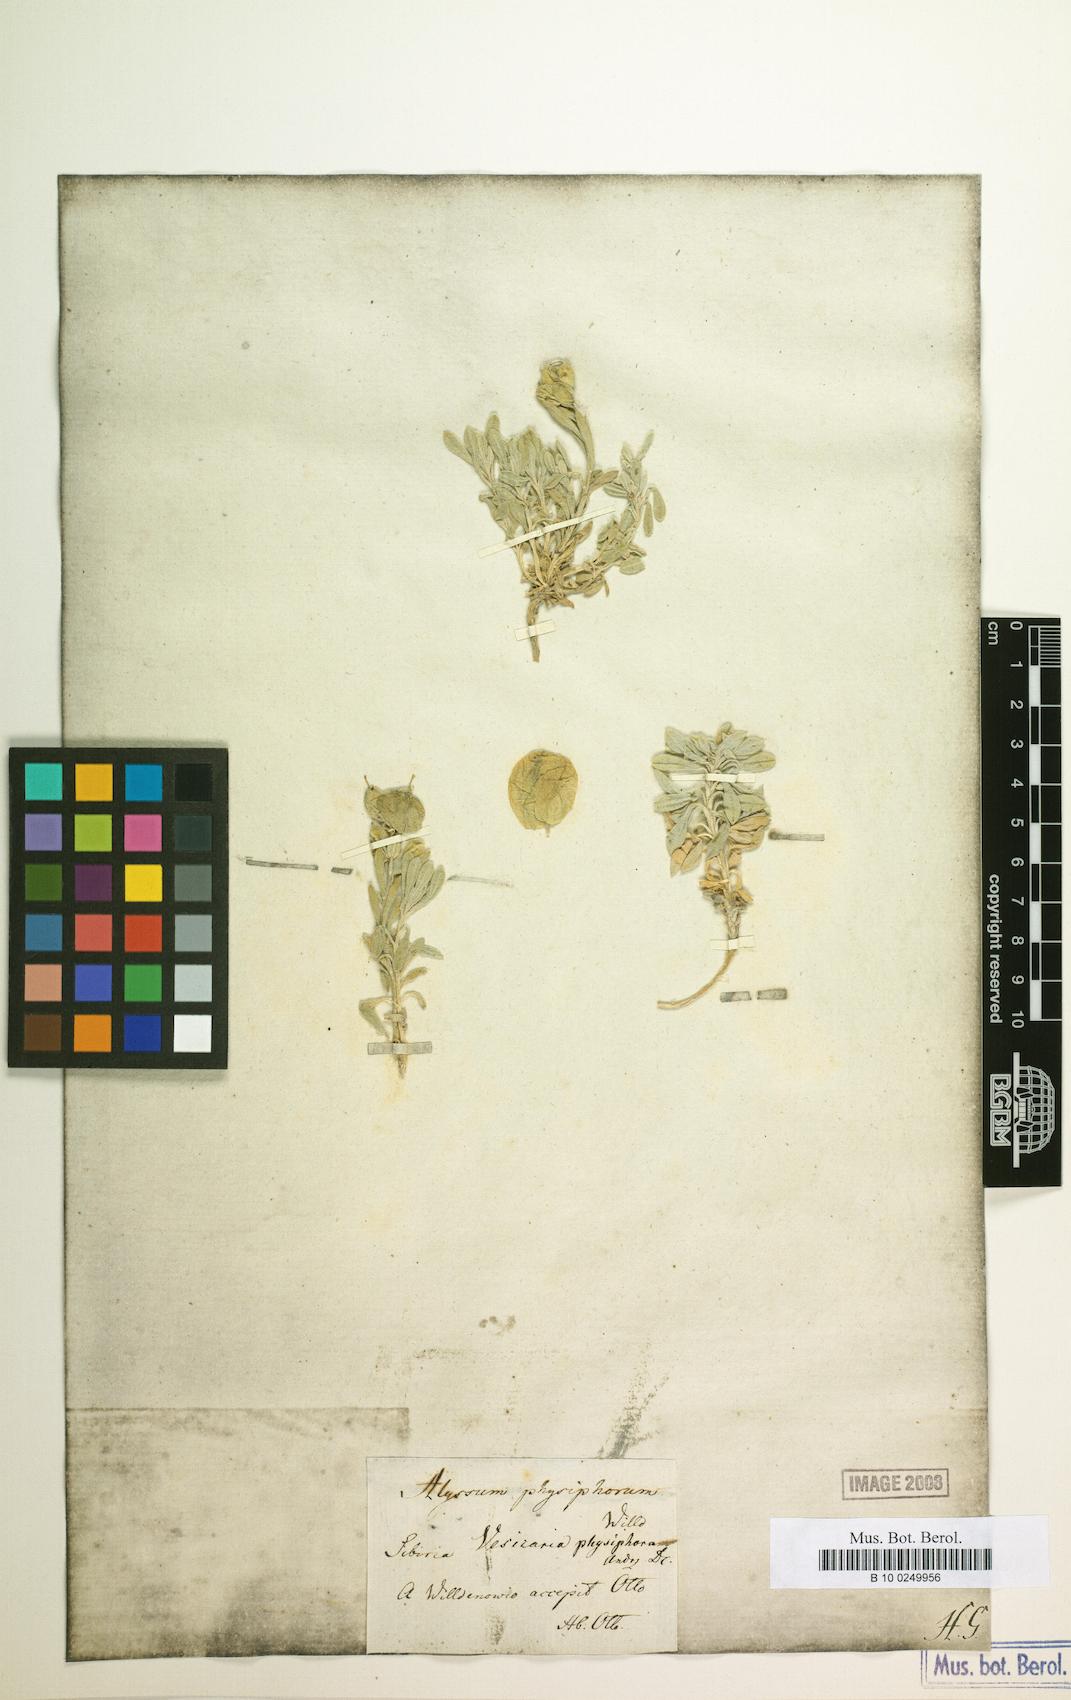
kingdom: Plantae
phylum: Tracheophyta
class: Magnoliopsida
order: Brassicales
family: Brassicaceae
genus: Physoptychis
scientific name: Physoptychis caspica
